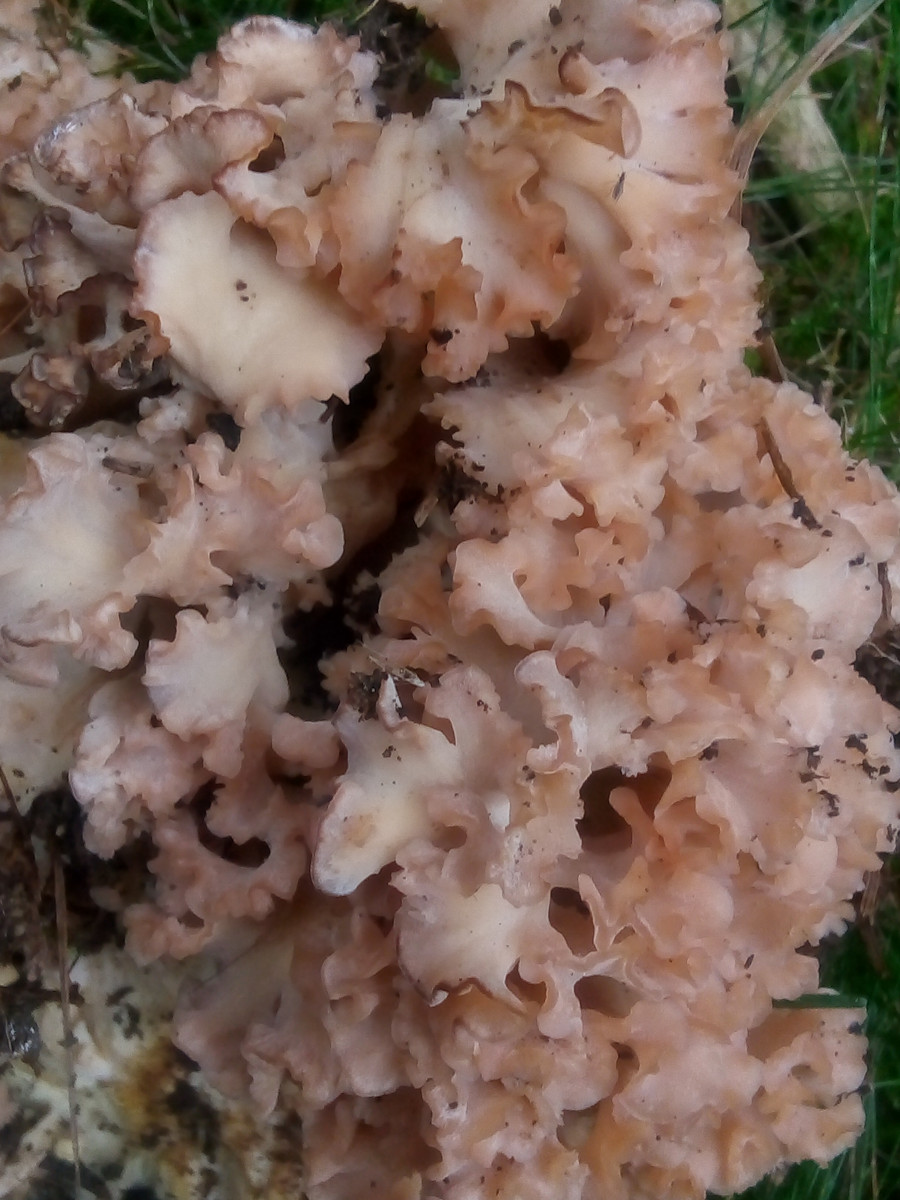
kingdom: Fungi
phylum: Basidiomycota
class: Agaricomycetes
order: Polyporales
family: Sparassidaceae
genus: Sparassis
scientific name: Sparassis crispa
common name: kruset blomkålssvamp
